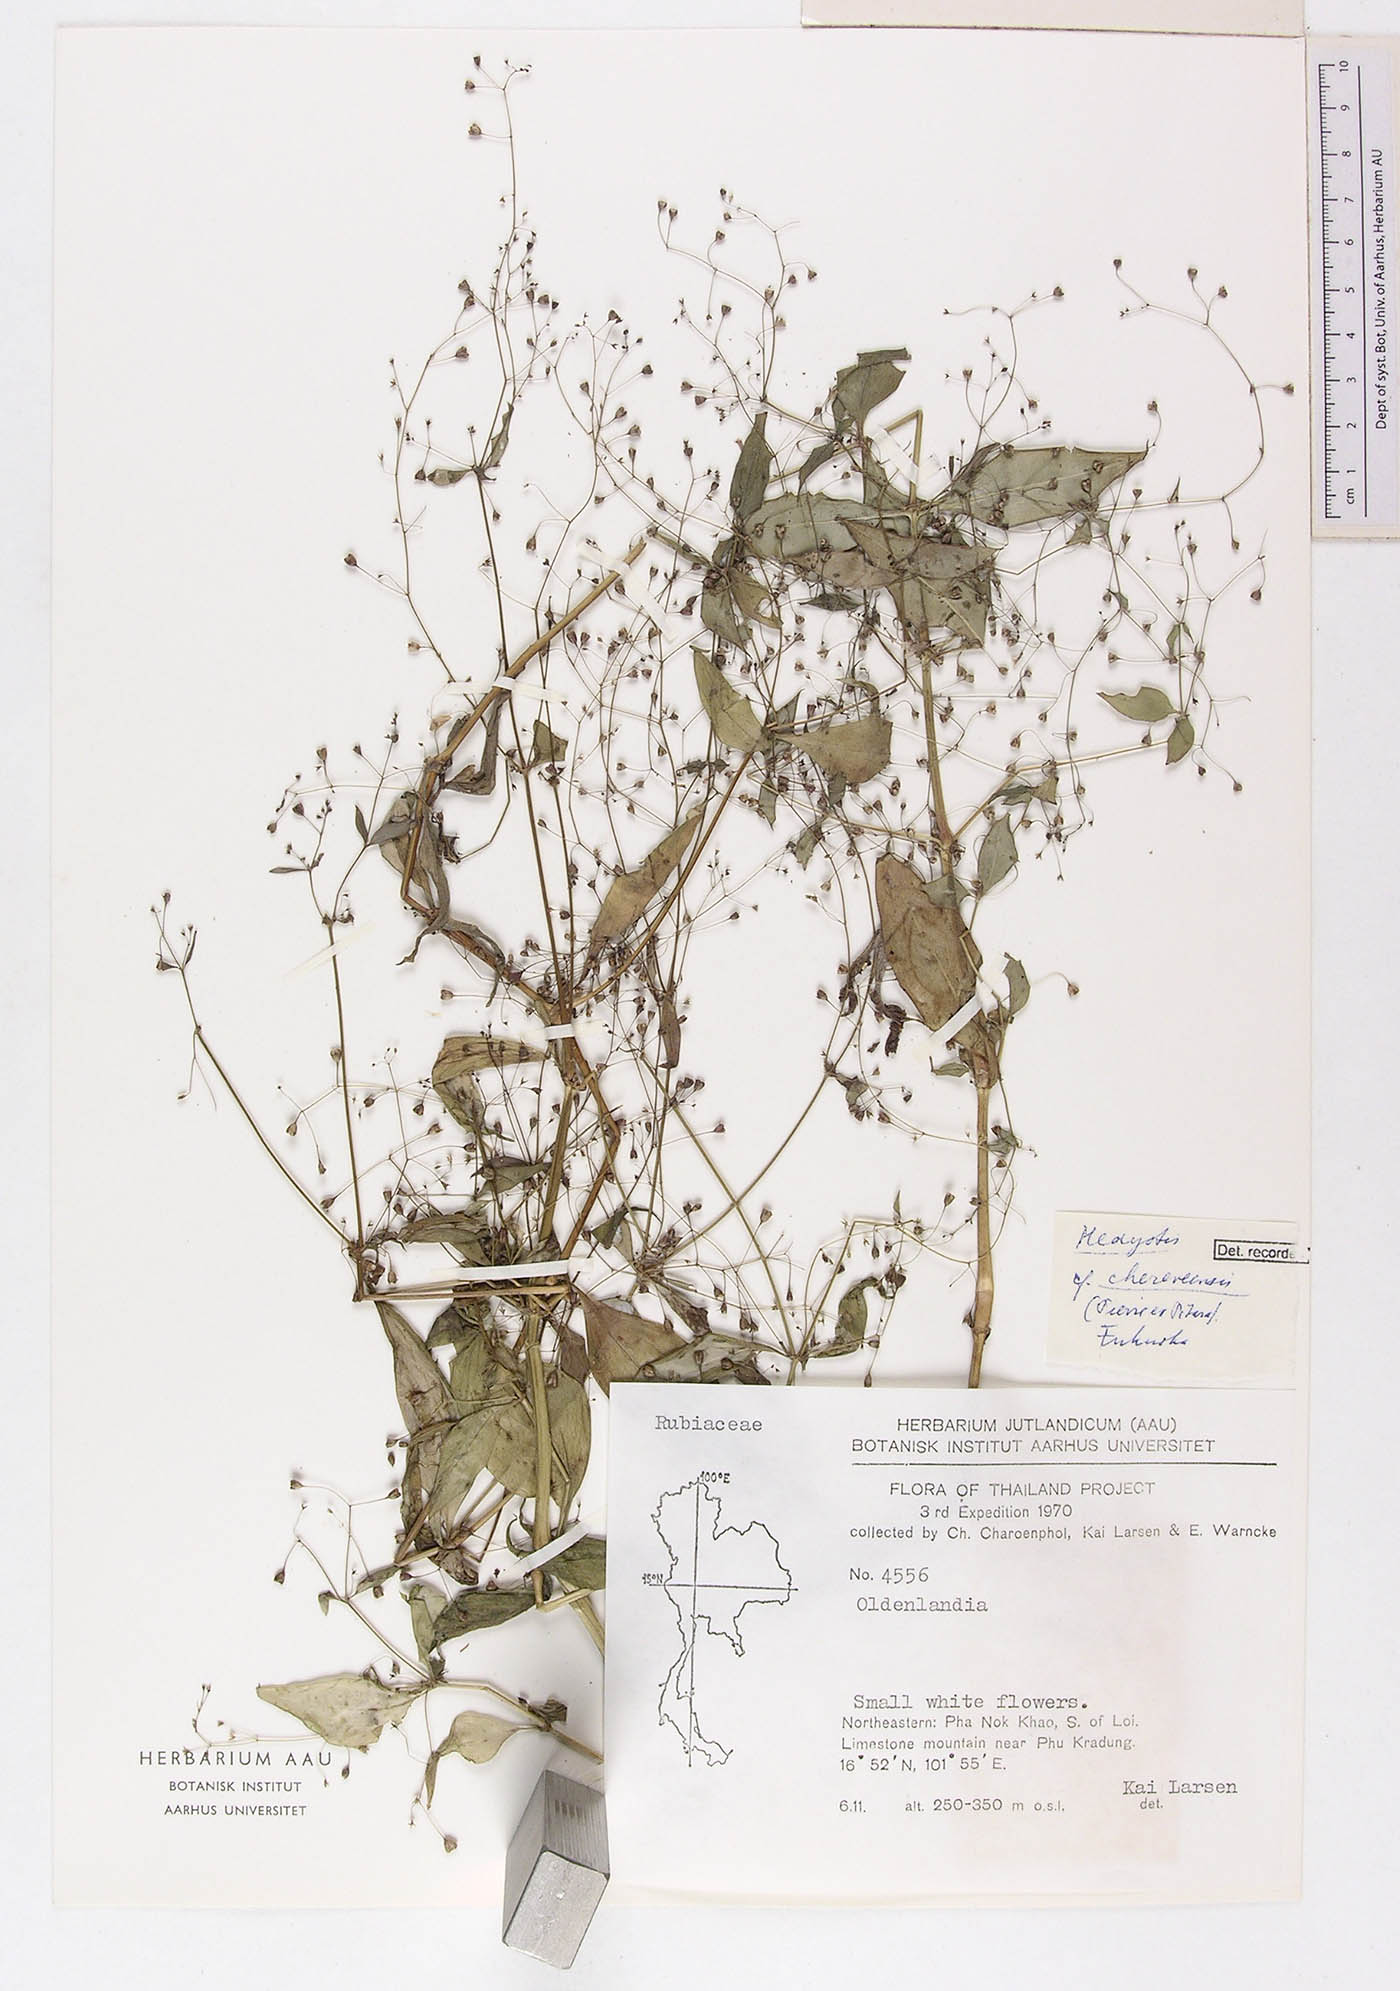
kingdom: Plantae
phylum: Tracheophyta
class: Magnoliopsida
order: Gentianales
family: Rubiaceae
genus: Involucrella
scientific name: Involucrella chereevensis
